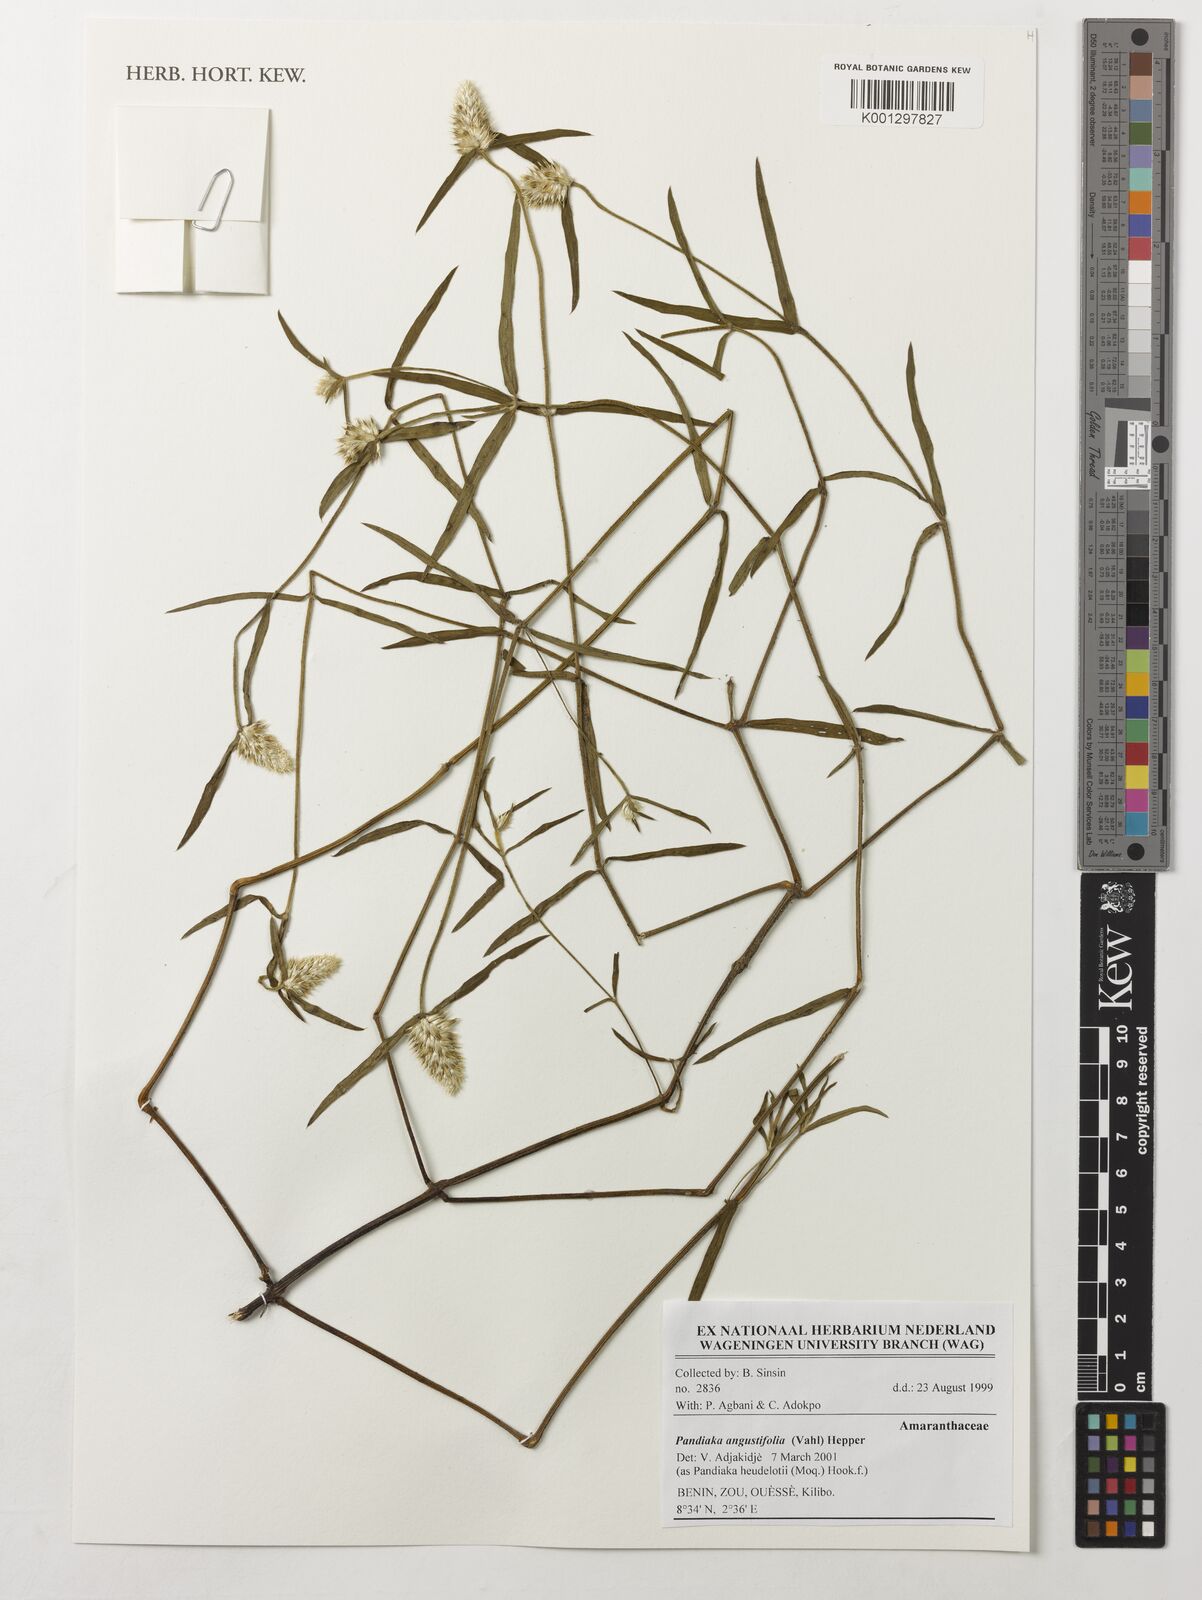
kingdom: Plantae
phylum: Tracheophyta
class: Magnoliopsida
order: Caryophyllales
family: Amaranthaceae
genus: Pandiaka
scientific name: Pandiaka angustifolia
